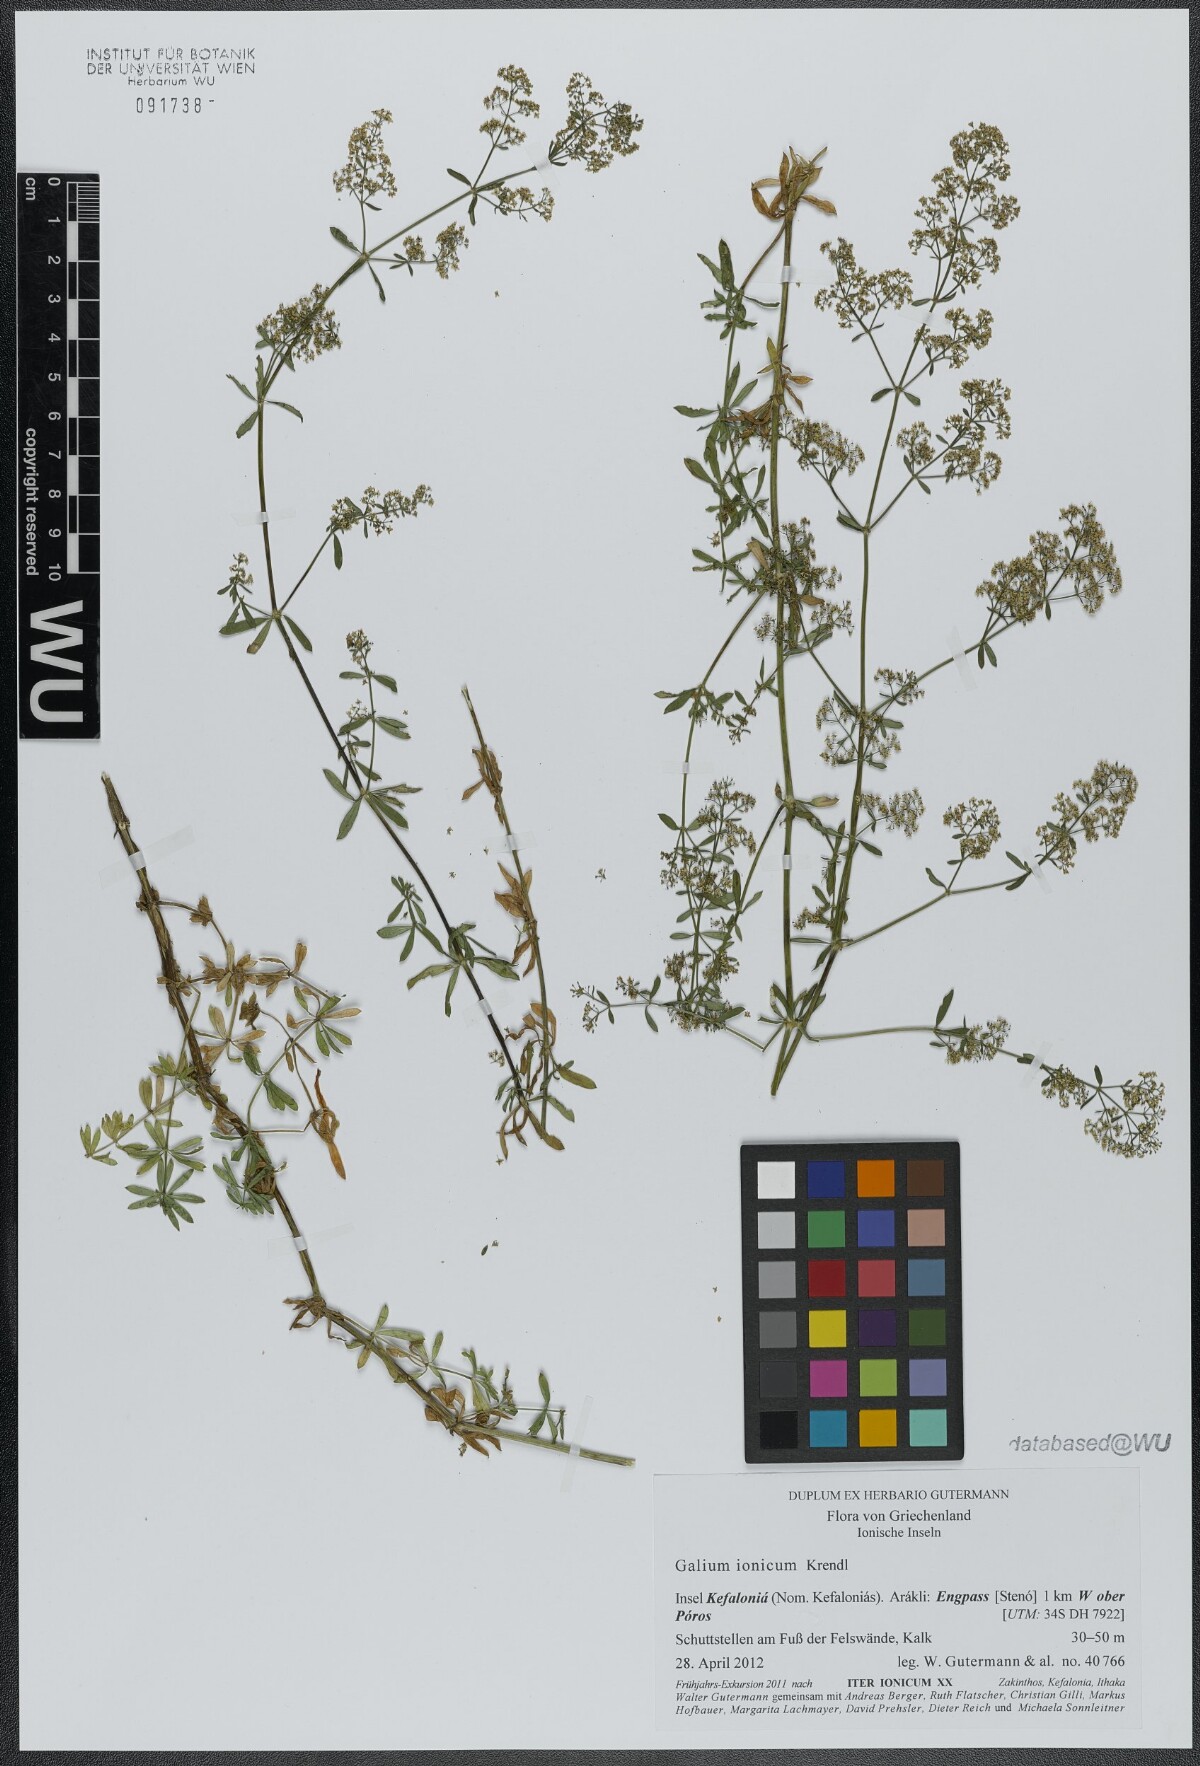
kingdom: Plantae
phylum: Tracheophyta
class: Magnoliopsida
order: Gentianales
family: Rubiaceae
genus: Galium
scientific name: Galium ionicum
